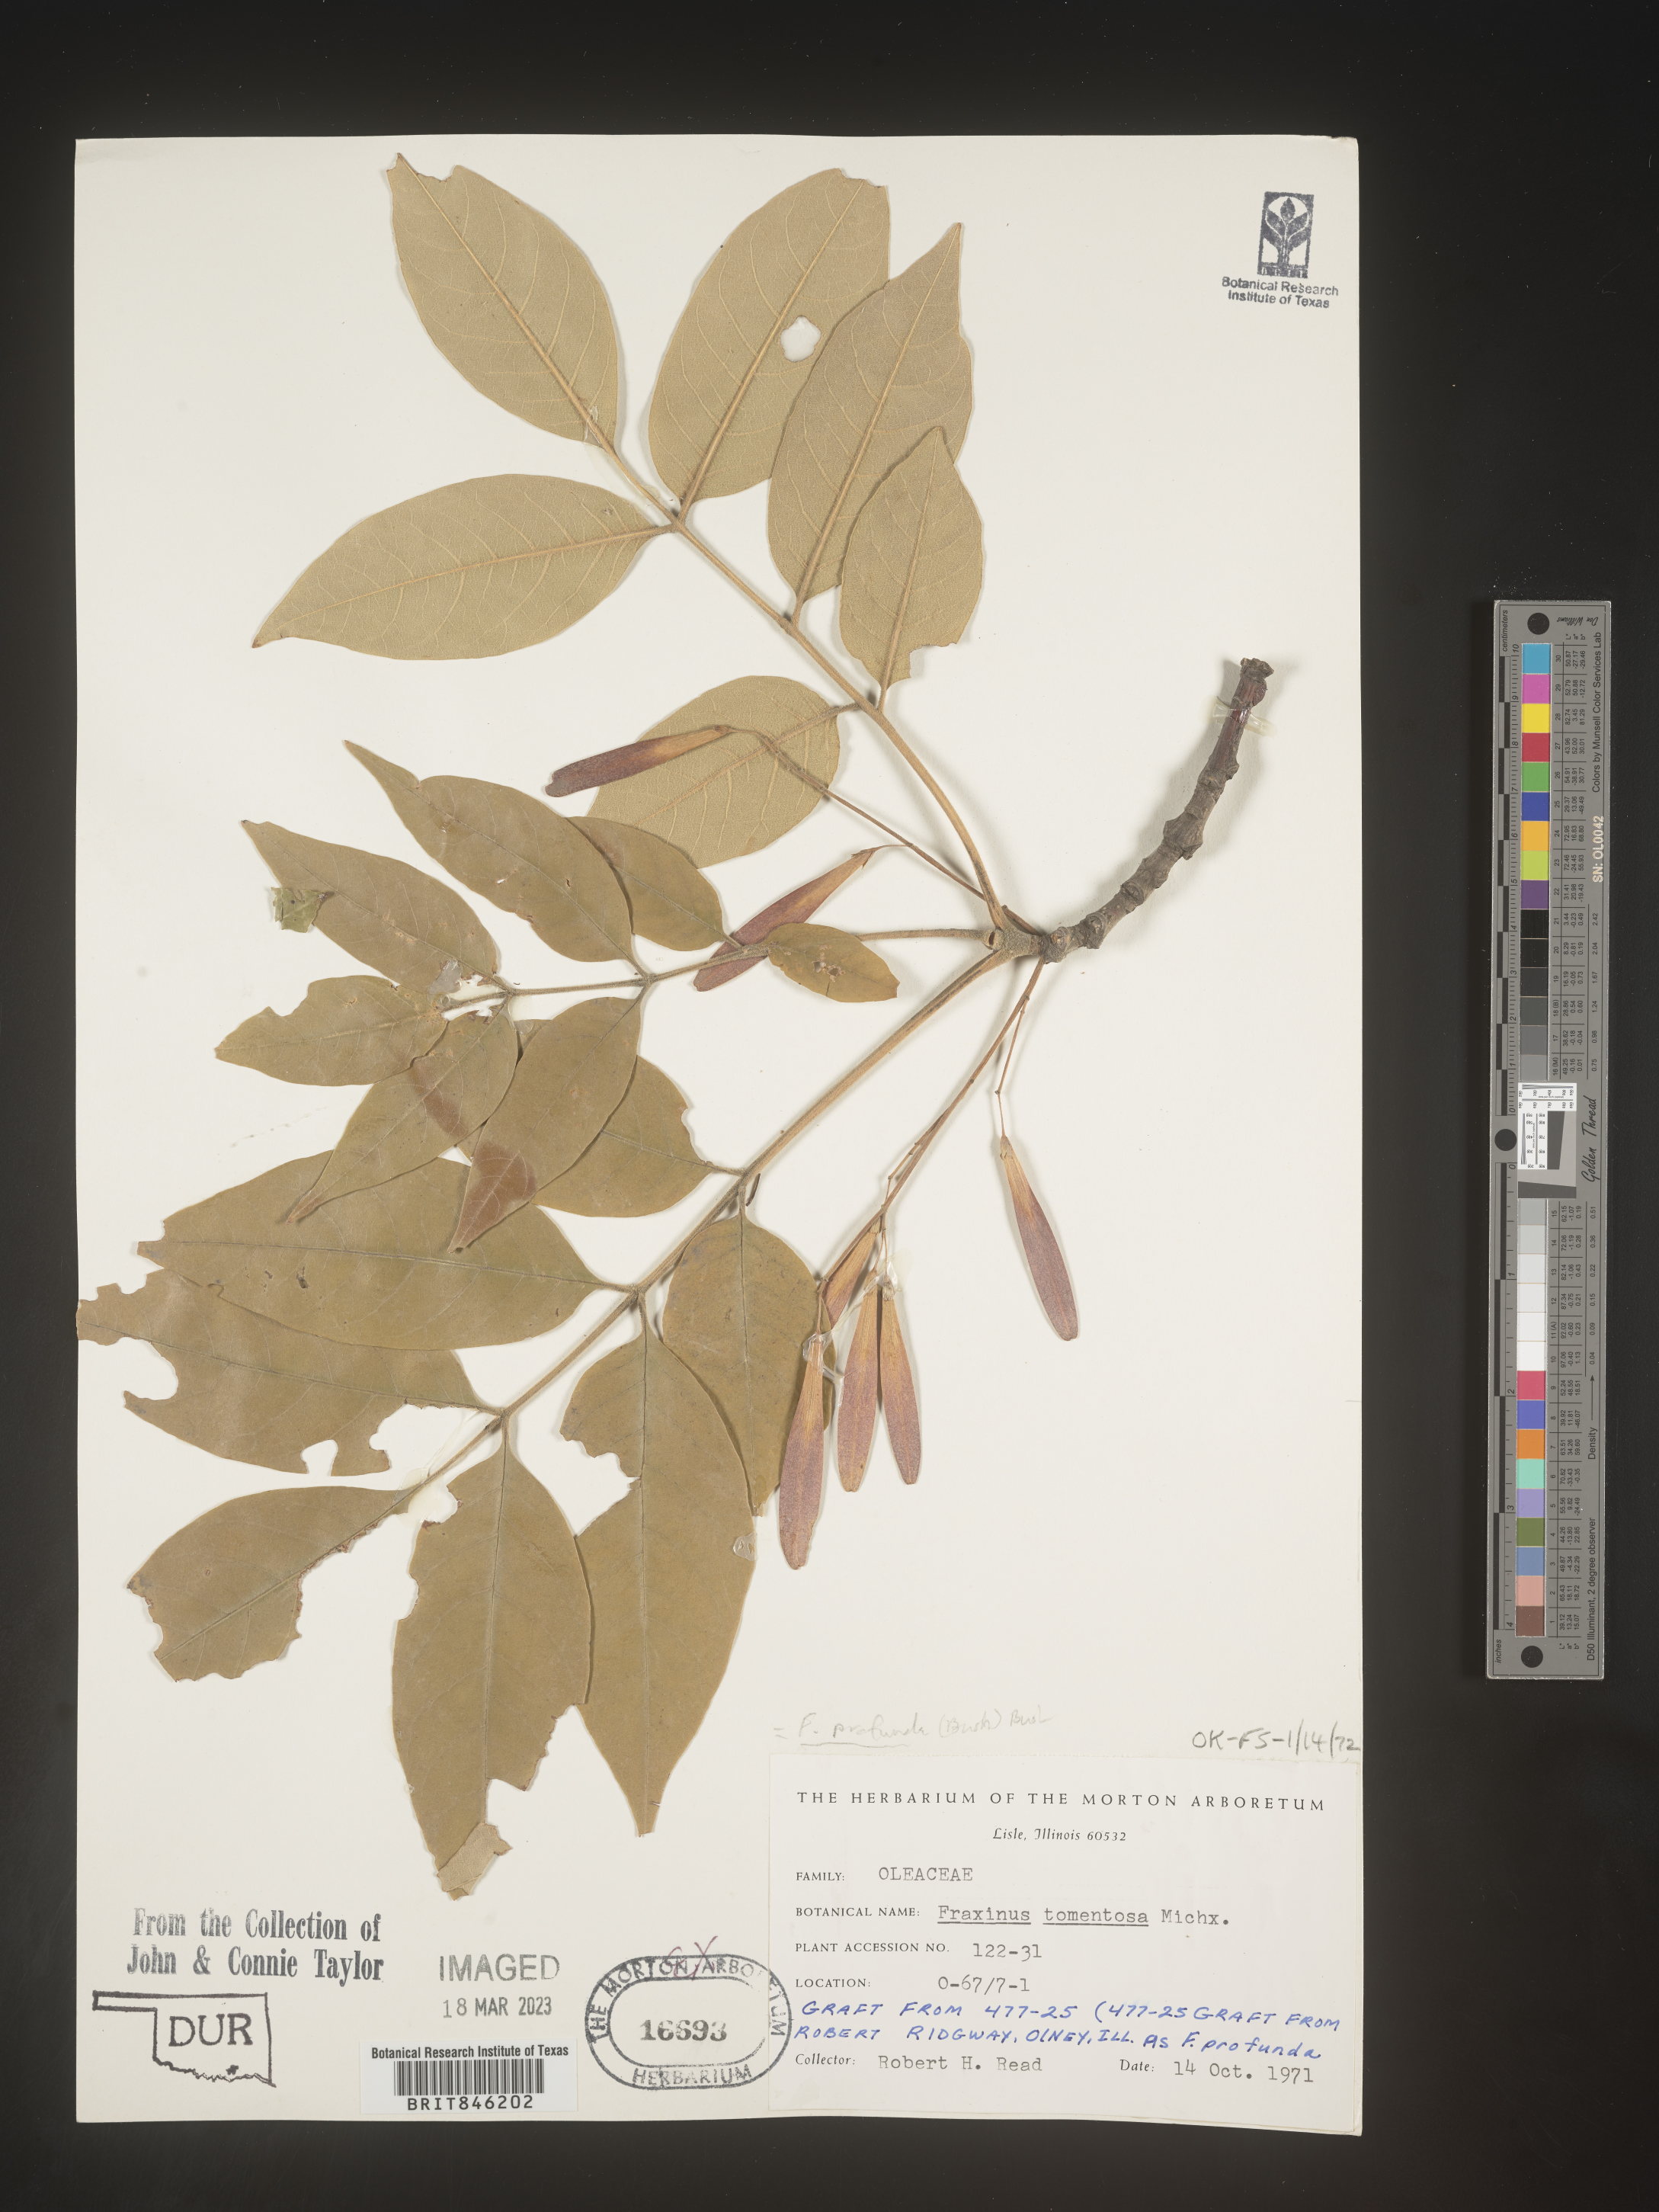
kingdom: Plantae
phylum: Tracheophyta
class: Magnoliopsida
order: Lamiales
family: Oleaceae
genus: Fraxinus
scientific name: Fraxinus profunda
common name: Pumpkin ash
